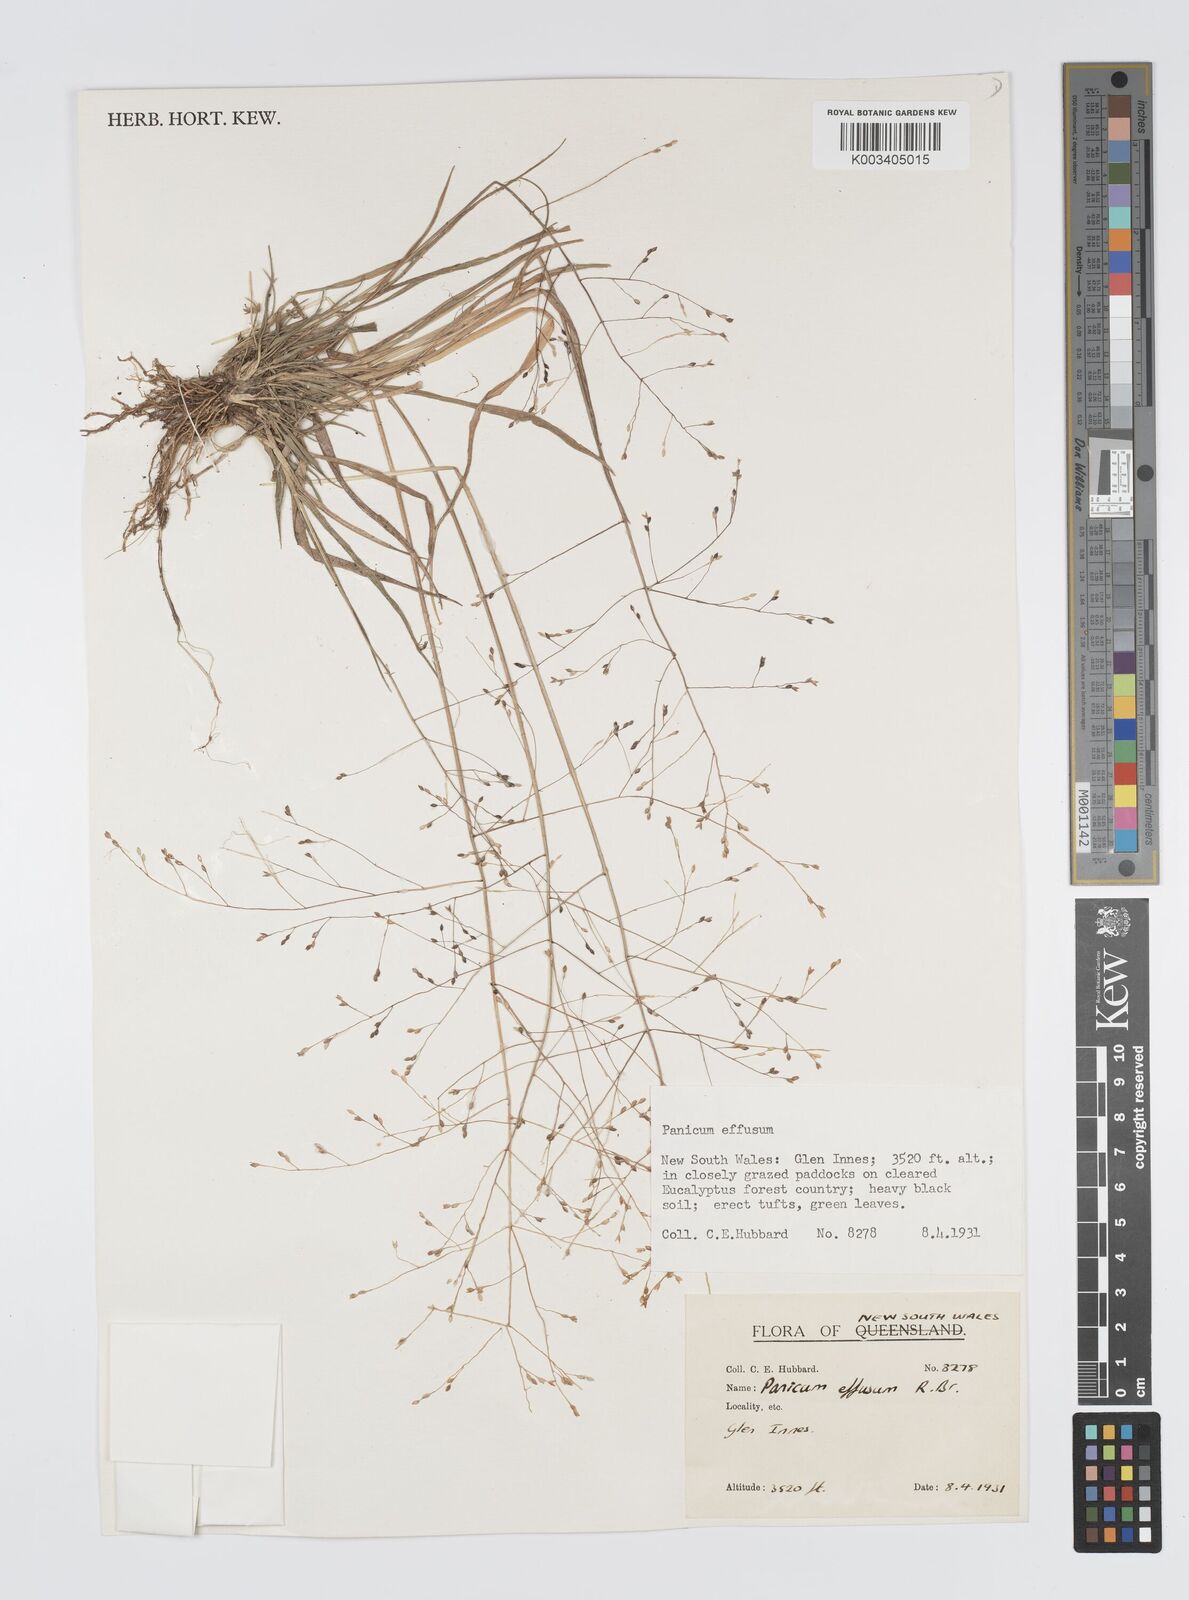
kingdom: Plantae
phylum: Tracheophyta
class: Liliopsida
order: Poales
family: Poaceae
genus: Panicum
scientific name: Panicum effusum
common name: Hairy panic grass
